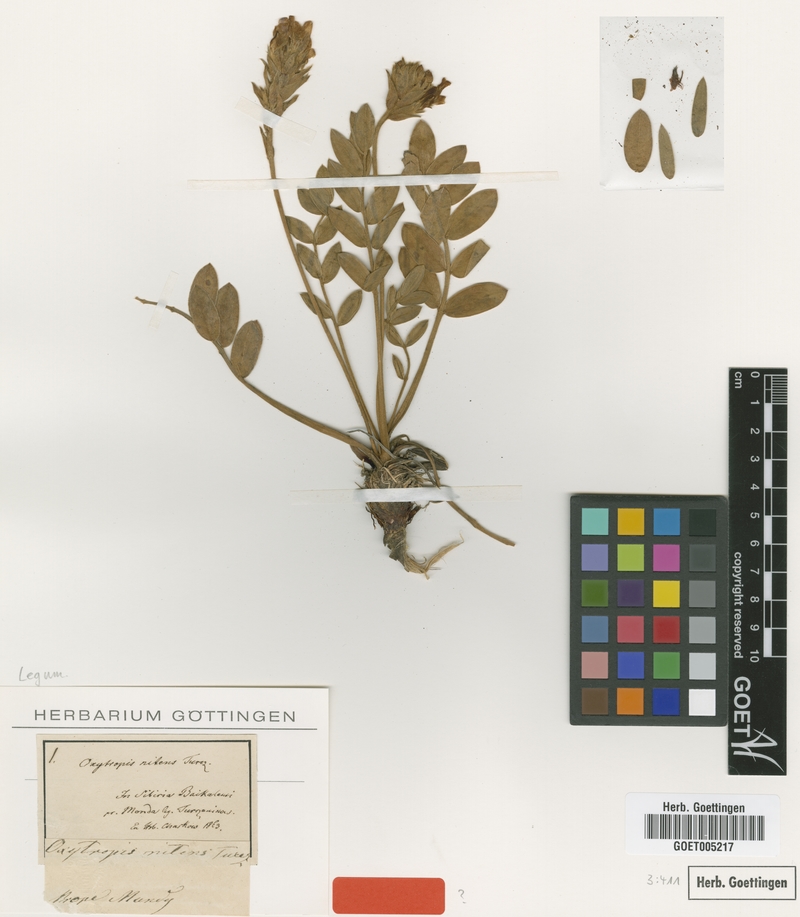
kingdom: Plantae
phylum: Tracheophyta
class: Magnoliopsida
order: Fabales
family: Fabaceae
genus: Oxytropis
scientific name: Oxytropis nitens
